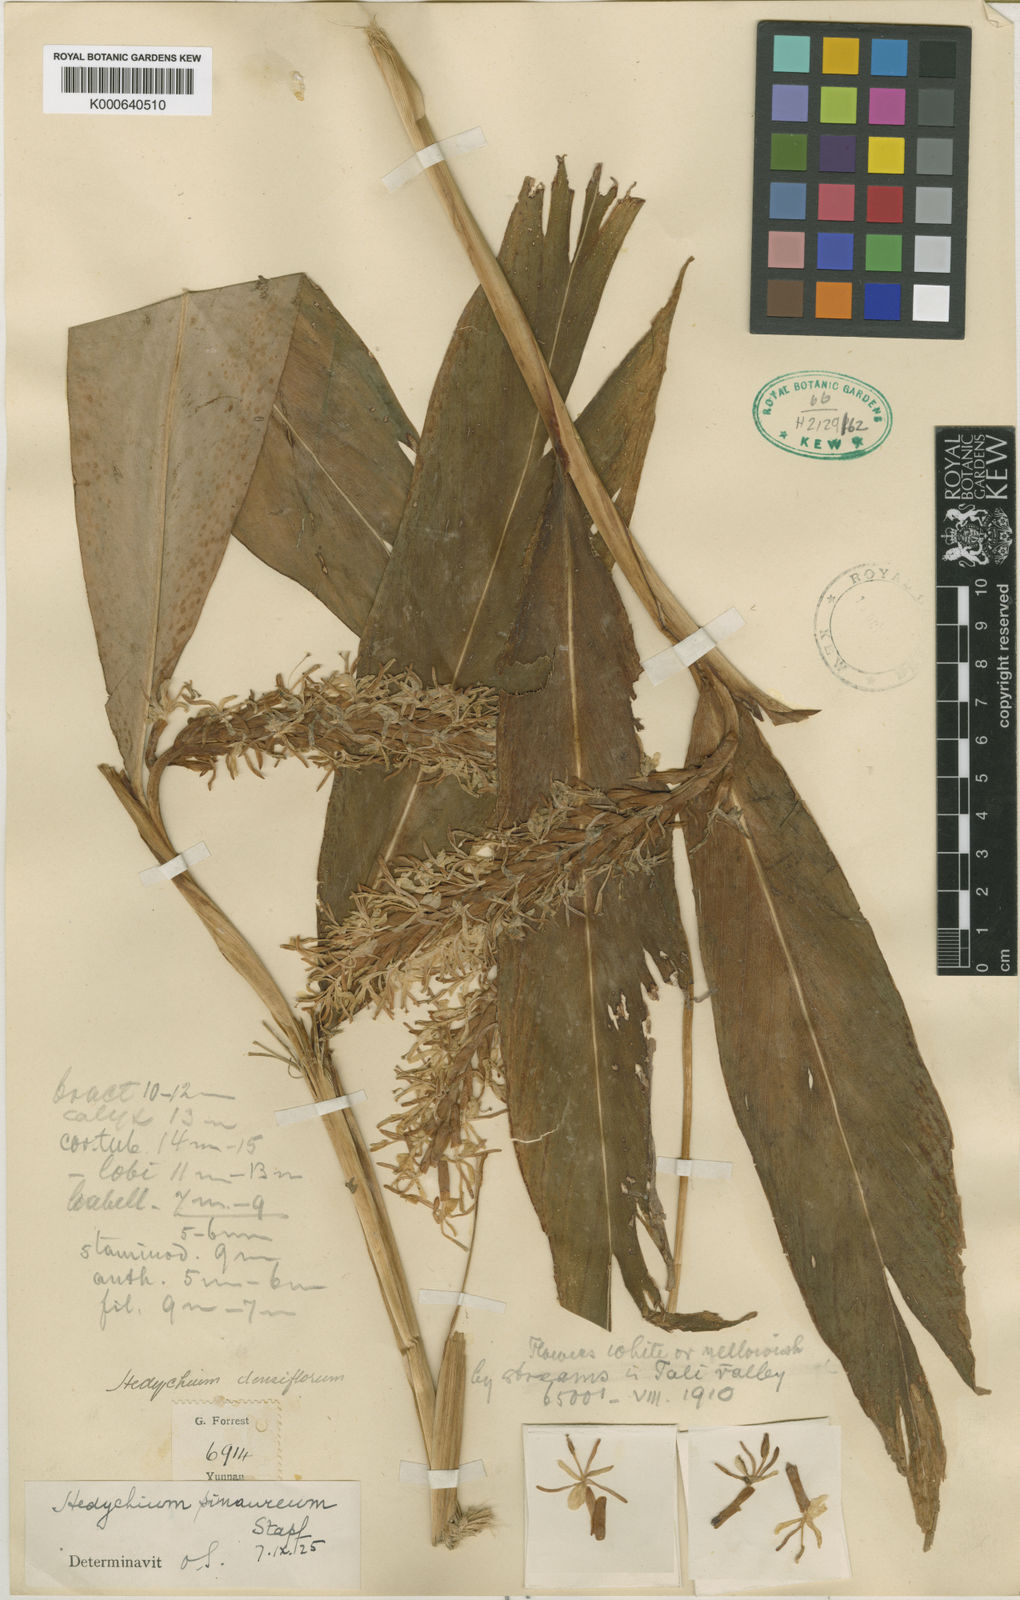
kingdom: Plantae
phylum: Tracheophyta
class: Liliopsida
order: Zingiberales
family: Zingiberaceae
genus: Hedychium
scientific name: Hedychium densiflorum
